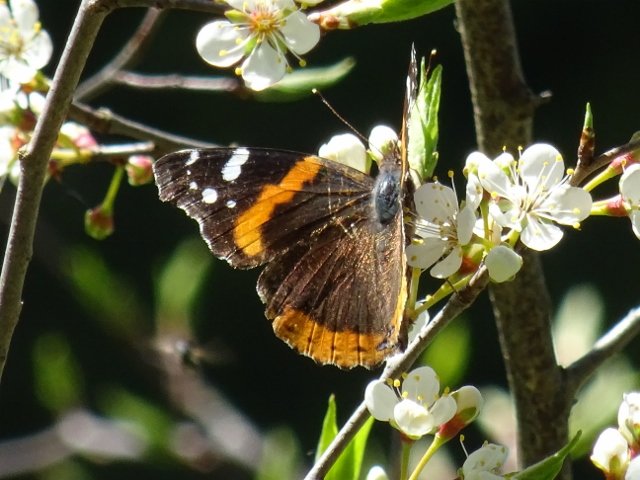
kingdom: Animalia
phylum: Arthropoda
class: Insecta
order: Lepidoptera
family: Nymphalidae
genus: Vanessa
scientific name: Vanessa atalanta
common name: Red Admiral
